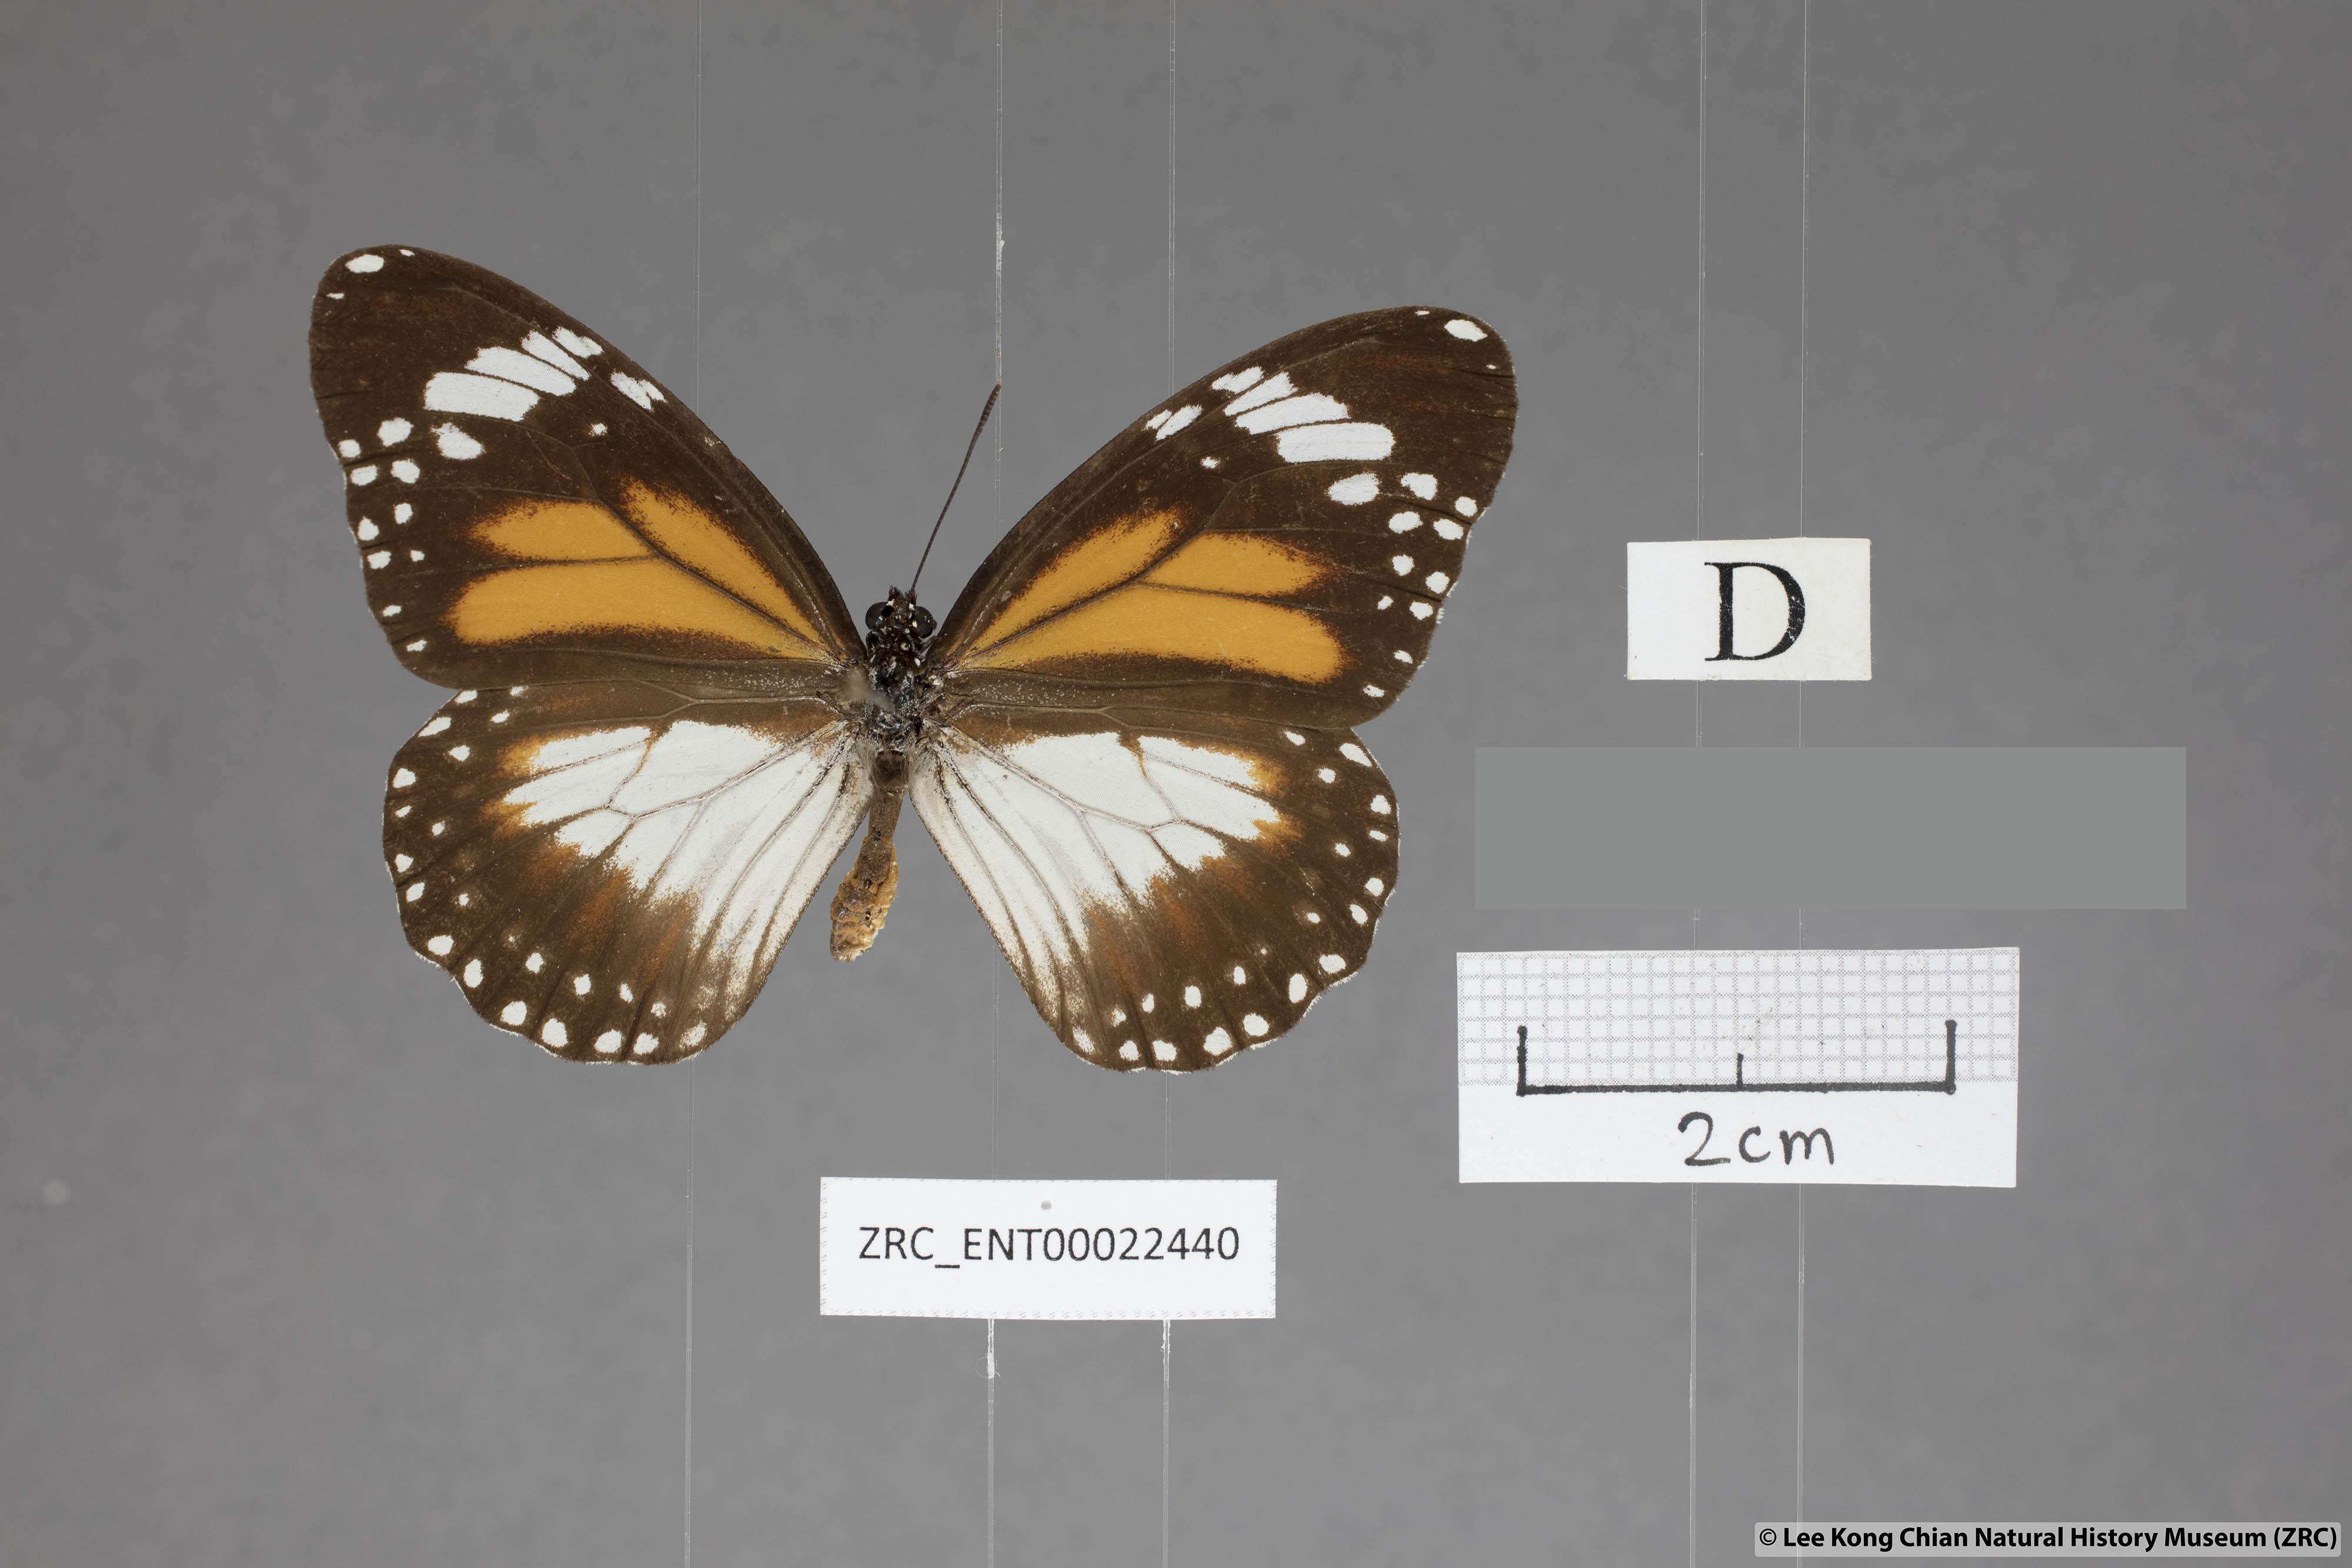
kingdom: Animalia
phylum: Arthropoda
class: Insecta
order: Lepidoptera
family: Nymphalidae
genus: Danaus
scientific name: Danaus affinis
